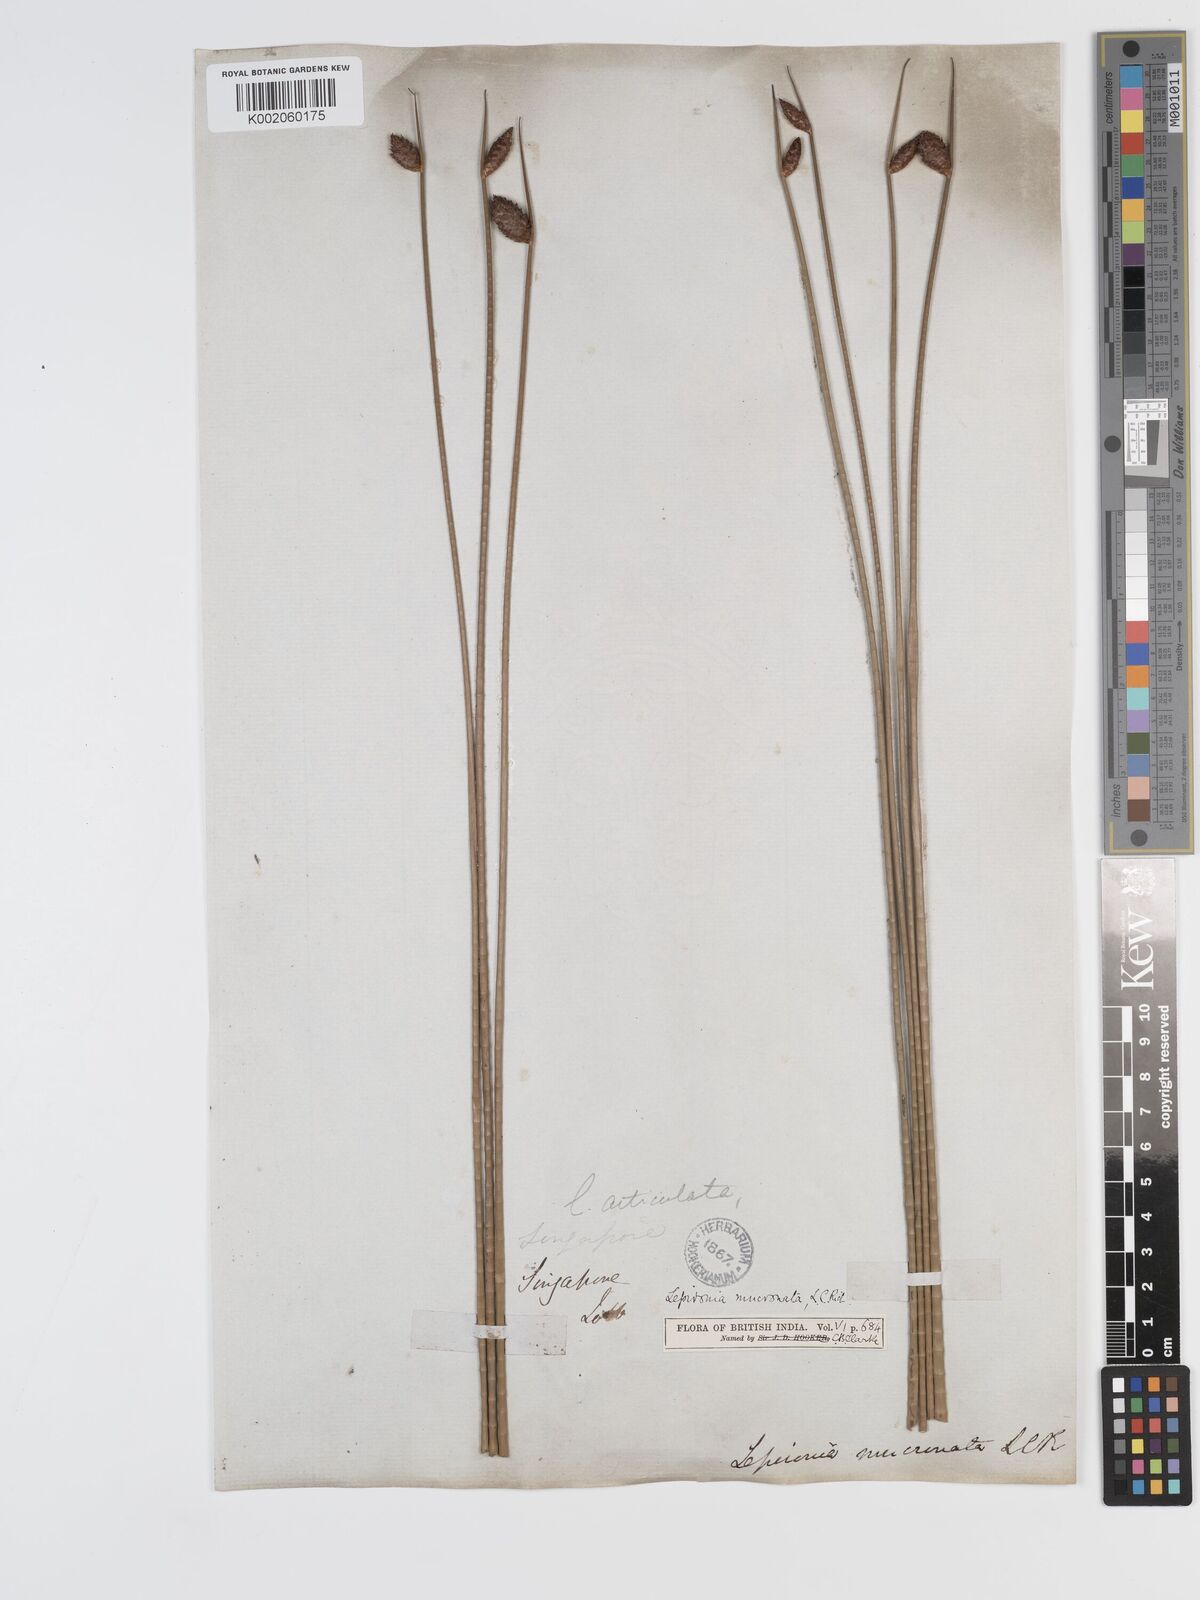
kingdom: Plantae
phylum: Tracheophyta
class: Liliopsida
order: Poales
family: Cyperaceae
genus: Lepironia
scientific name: Lepironia articulata
